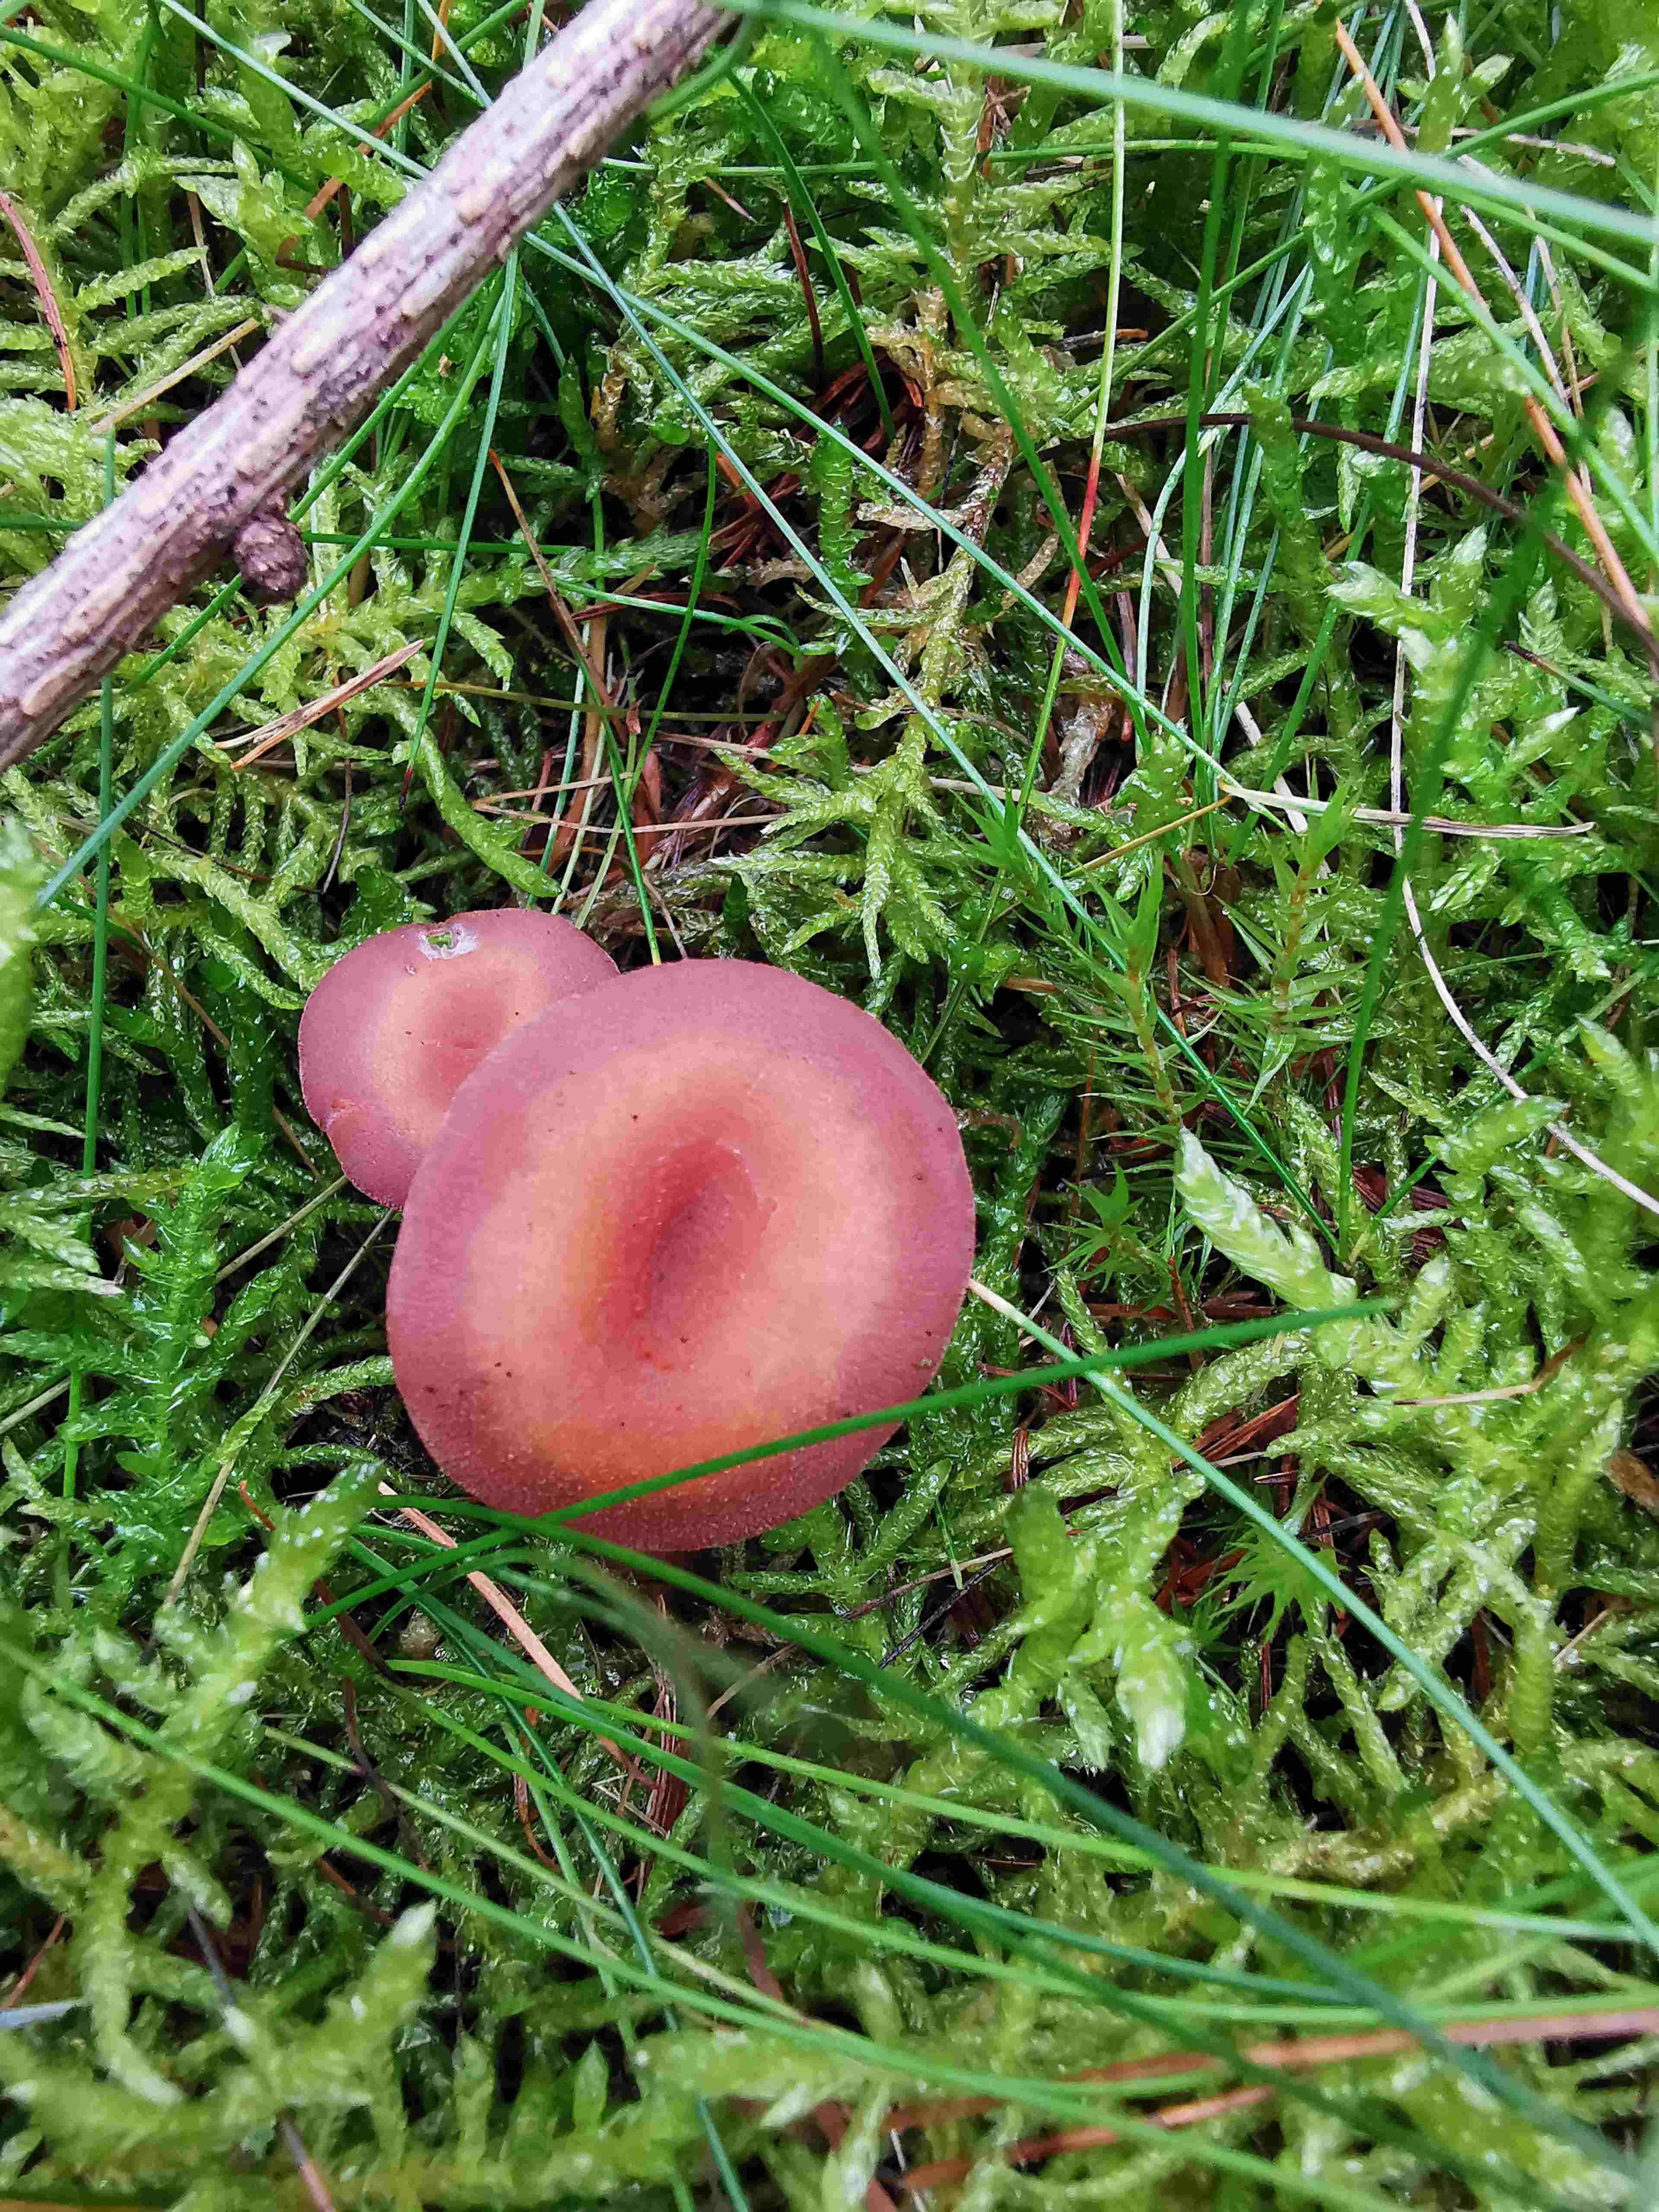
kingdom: Fungi
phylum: Basidiomycota
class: Agaricomycetes
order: Agaricales
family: Hydnangiaceae
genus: Laccaria
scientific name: Laccaria
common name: ametysthat
